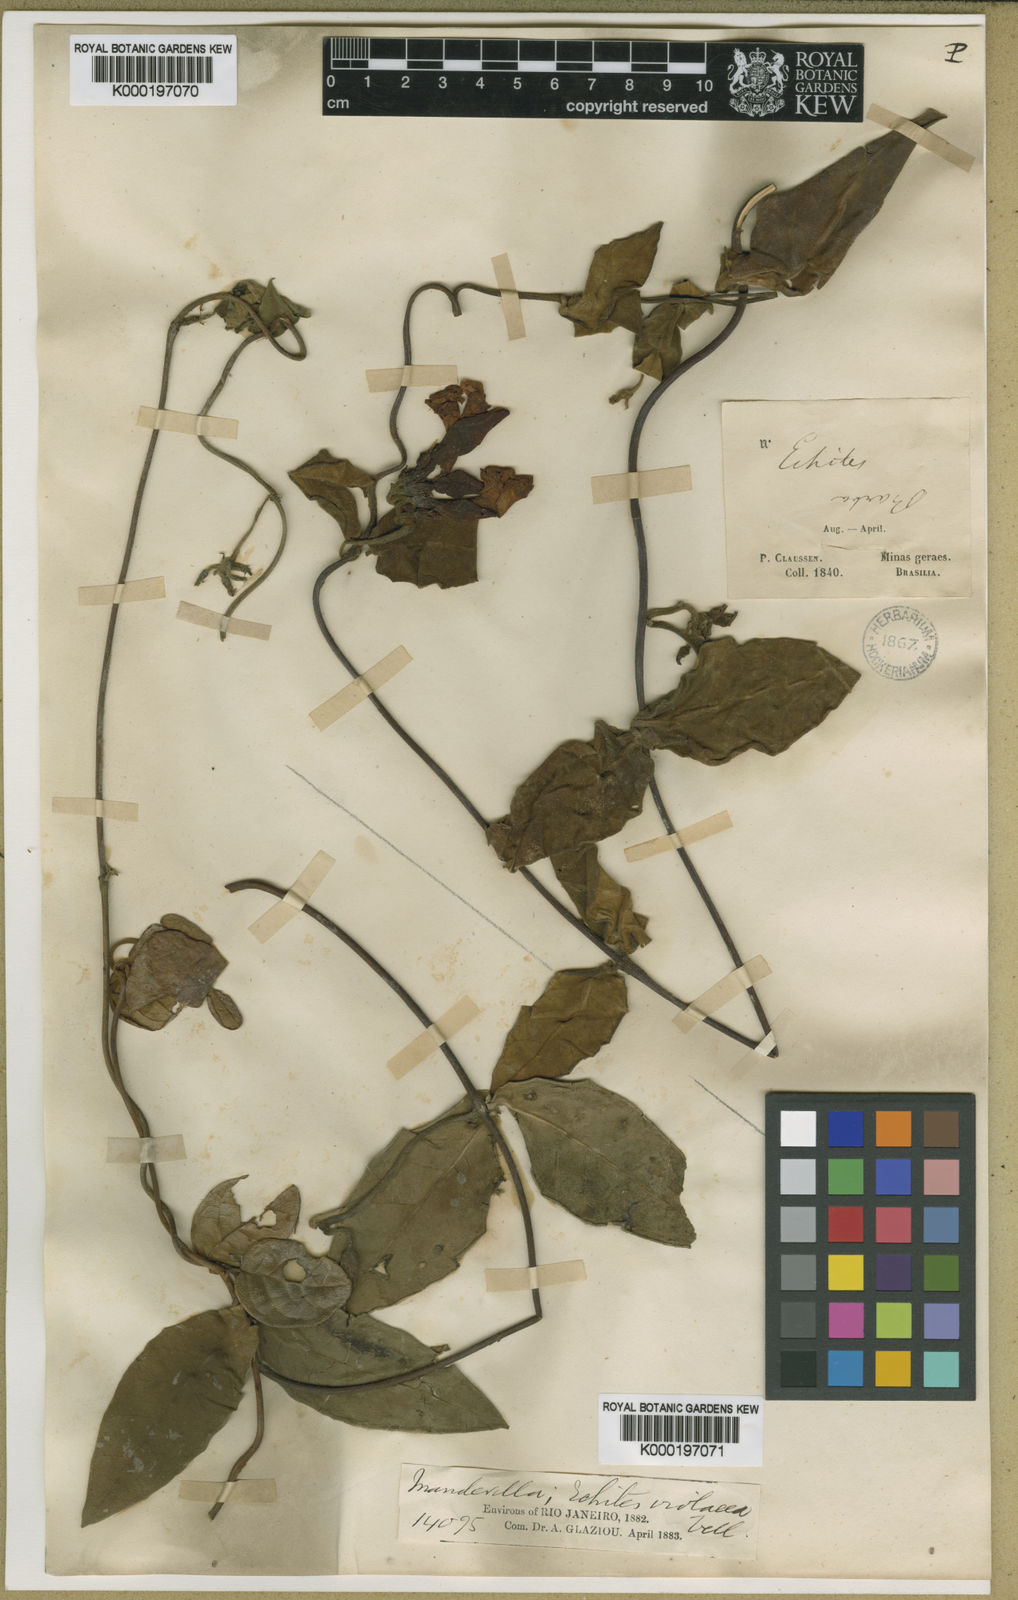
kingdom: Plantae
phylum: Tracheophyta
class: Magnoliopsida
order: Gentianales
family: Apocynaceae
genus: Temnadenia
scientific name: Temnadenia violacea
